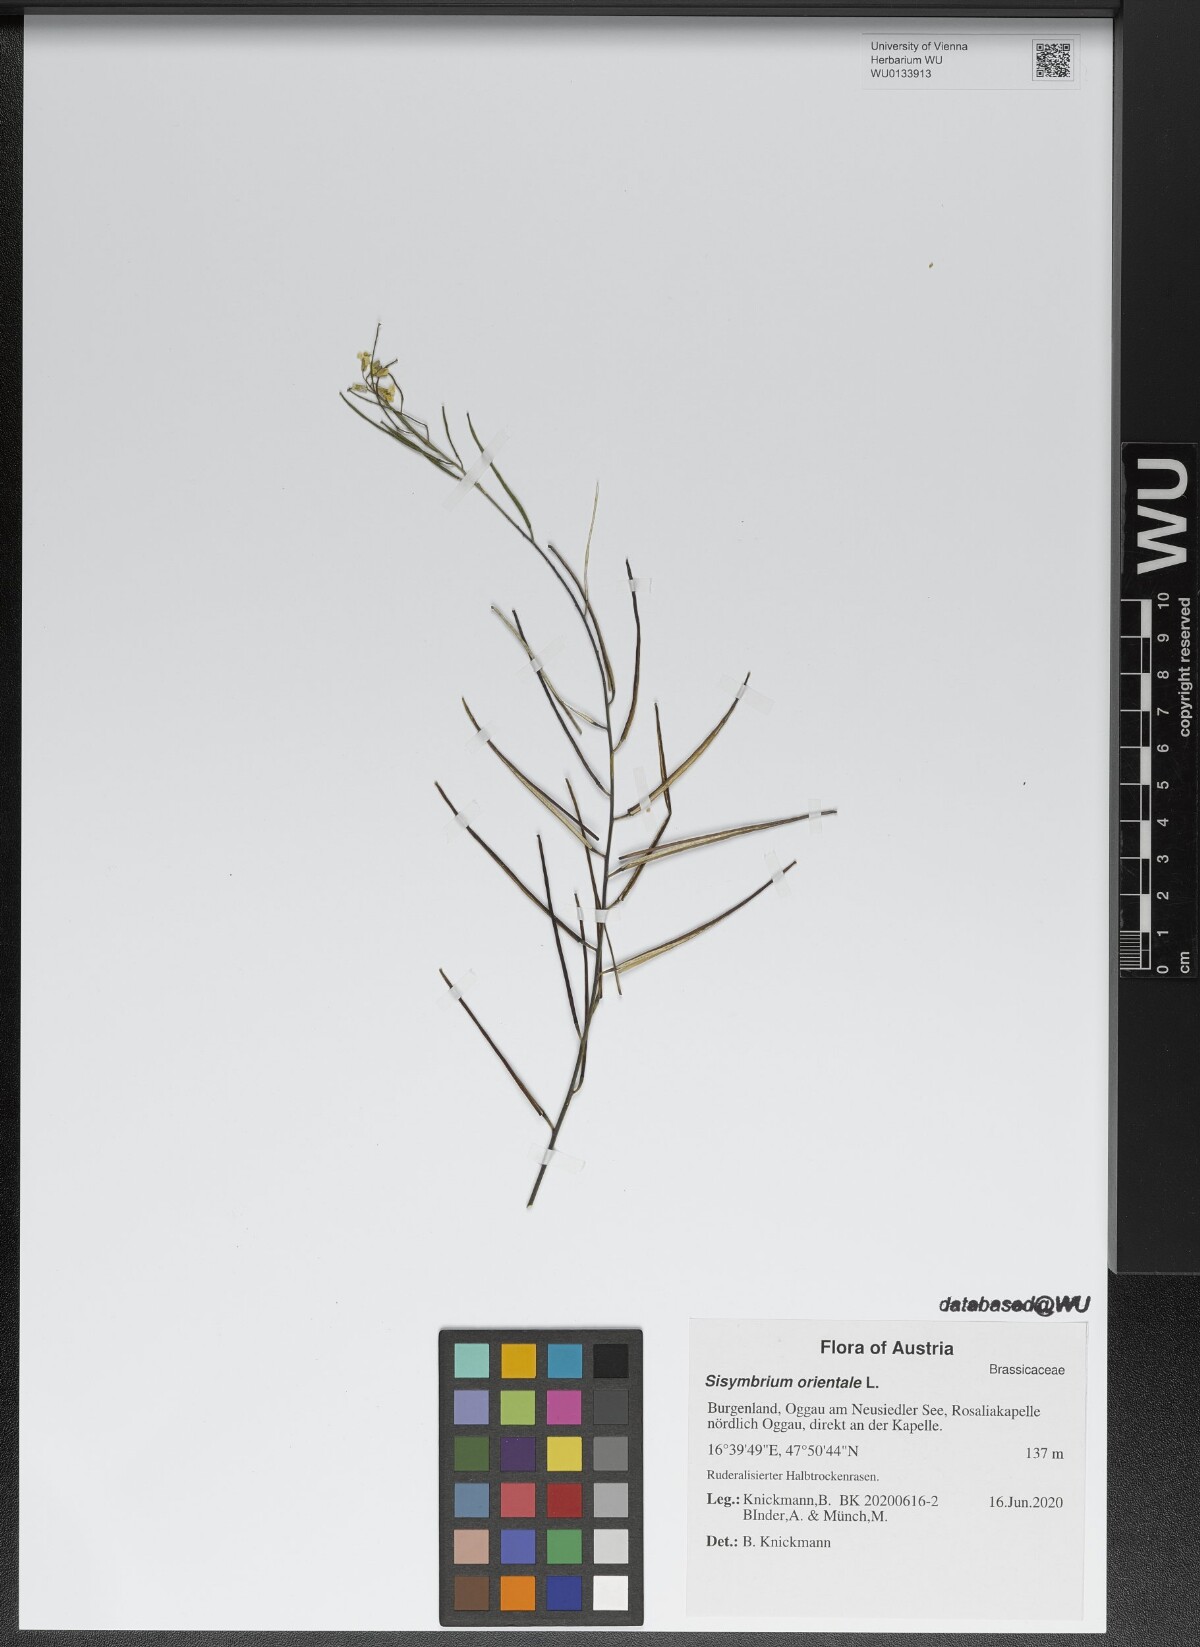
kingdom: Plantae
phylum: Tracheophyta
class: Magnoliopsida
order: Brassicales
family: Brassicaceae
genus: Sisymbrium
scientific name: Sisymbrium orientale
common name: Eastern rocket
